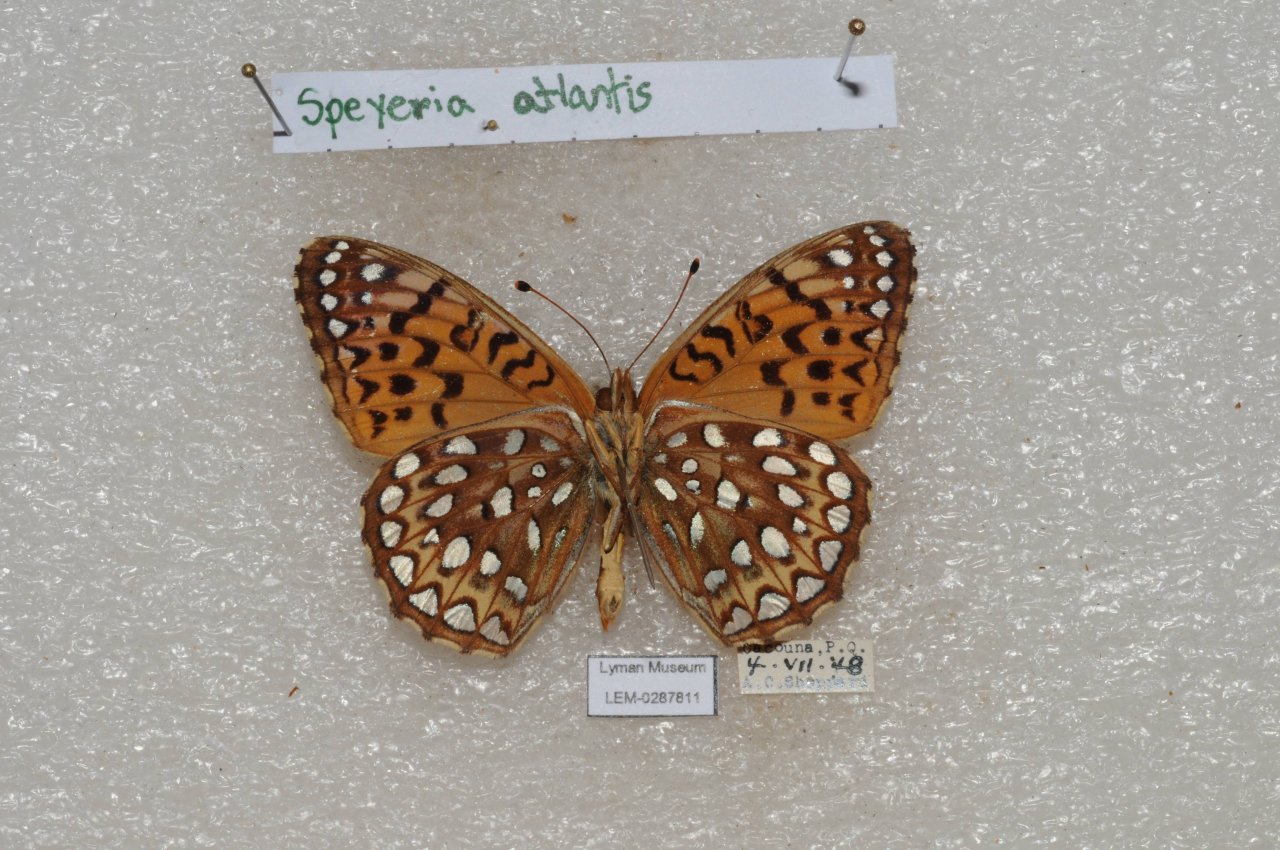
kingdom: Animalia
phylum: Arthropoda
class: Insecta
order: Lepidoptera
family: Nymphalidae
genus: Speyeria
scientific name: Speyeria atlantis
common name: Atlantis Fritillary
